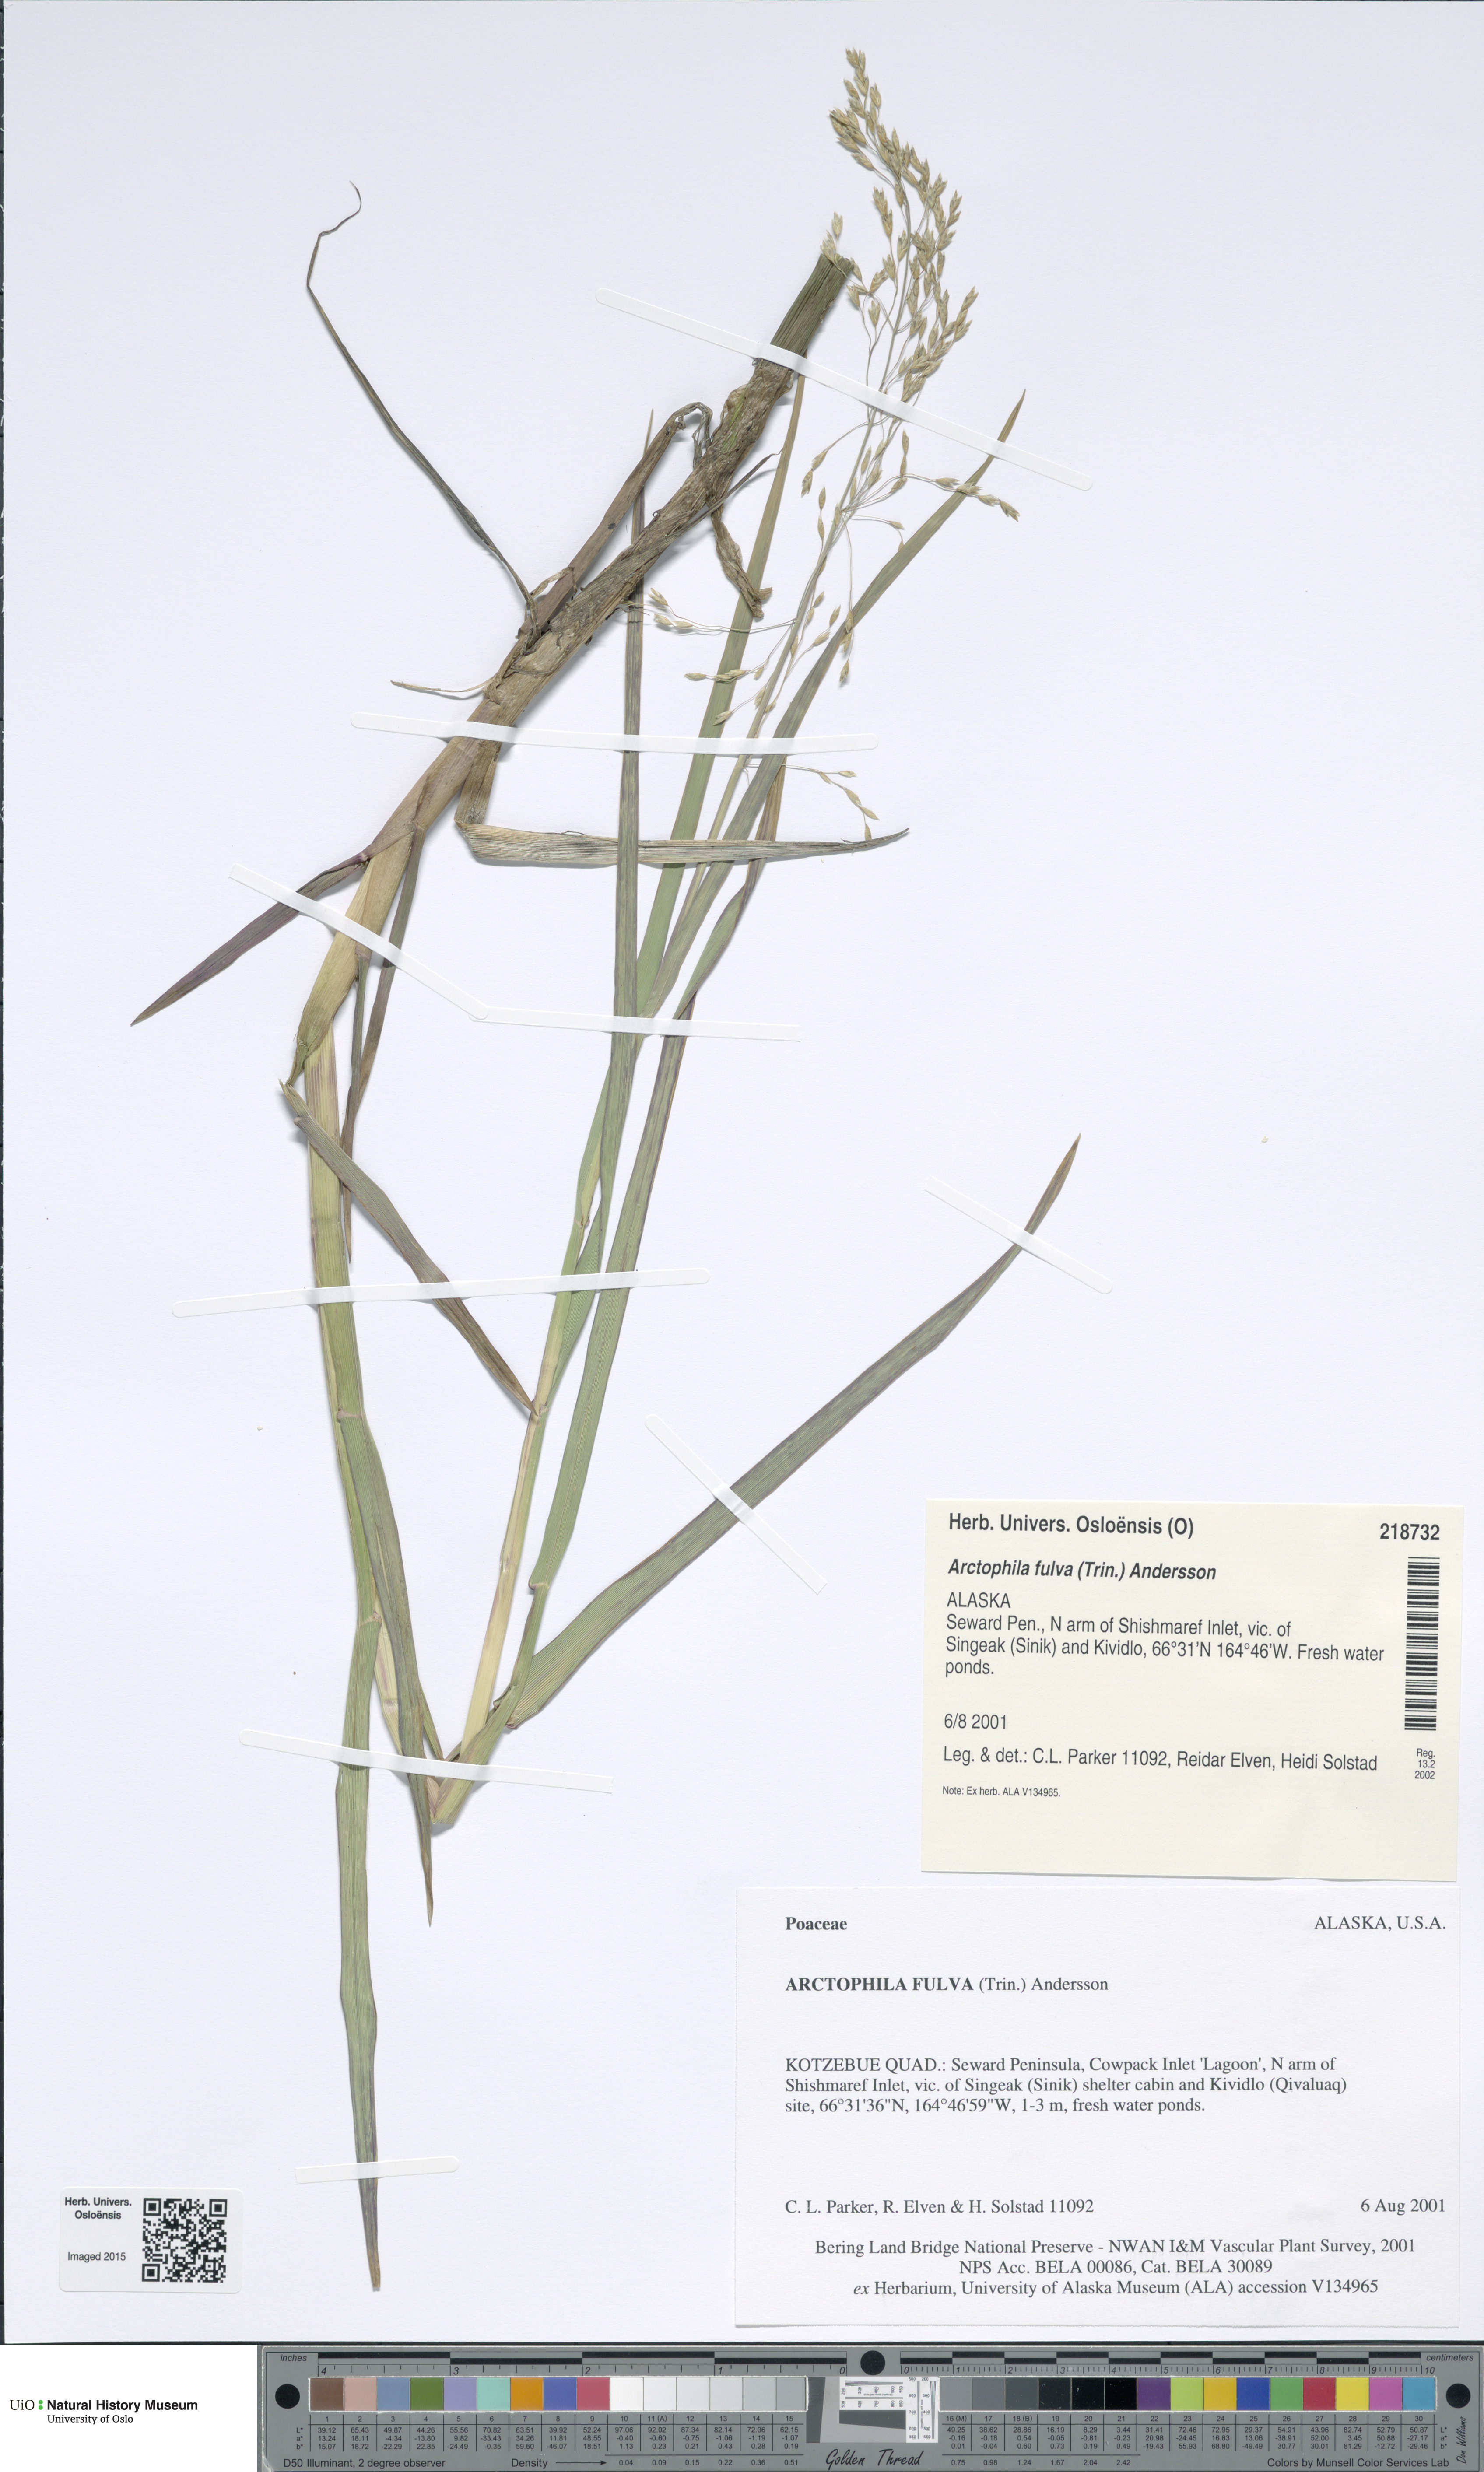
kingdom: Plantae
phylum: Tracheophyta
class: Liliopsida
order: Poales
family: Poaceae
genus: Dupontia
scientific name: Dupontia fulva
